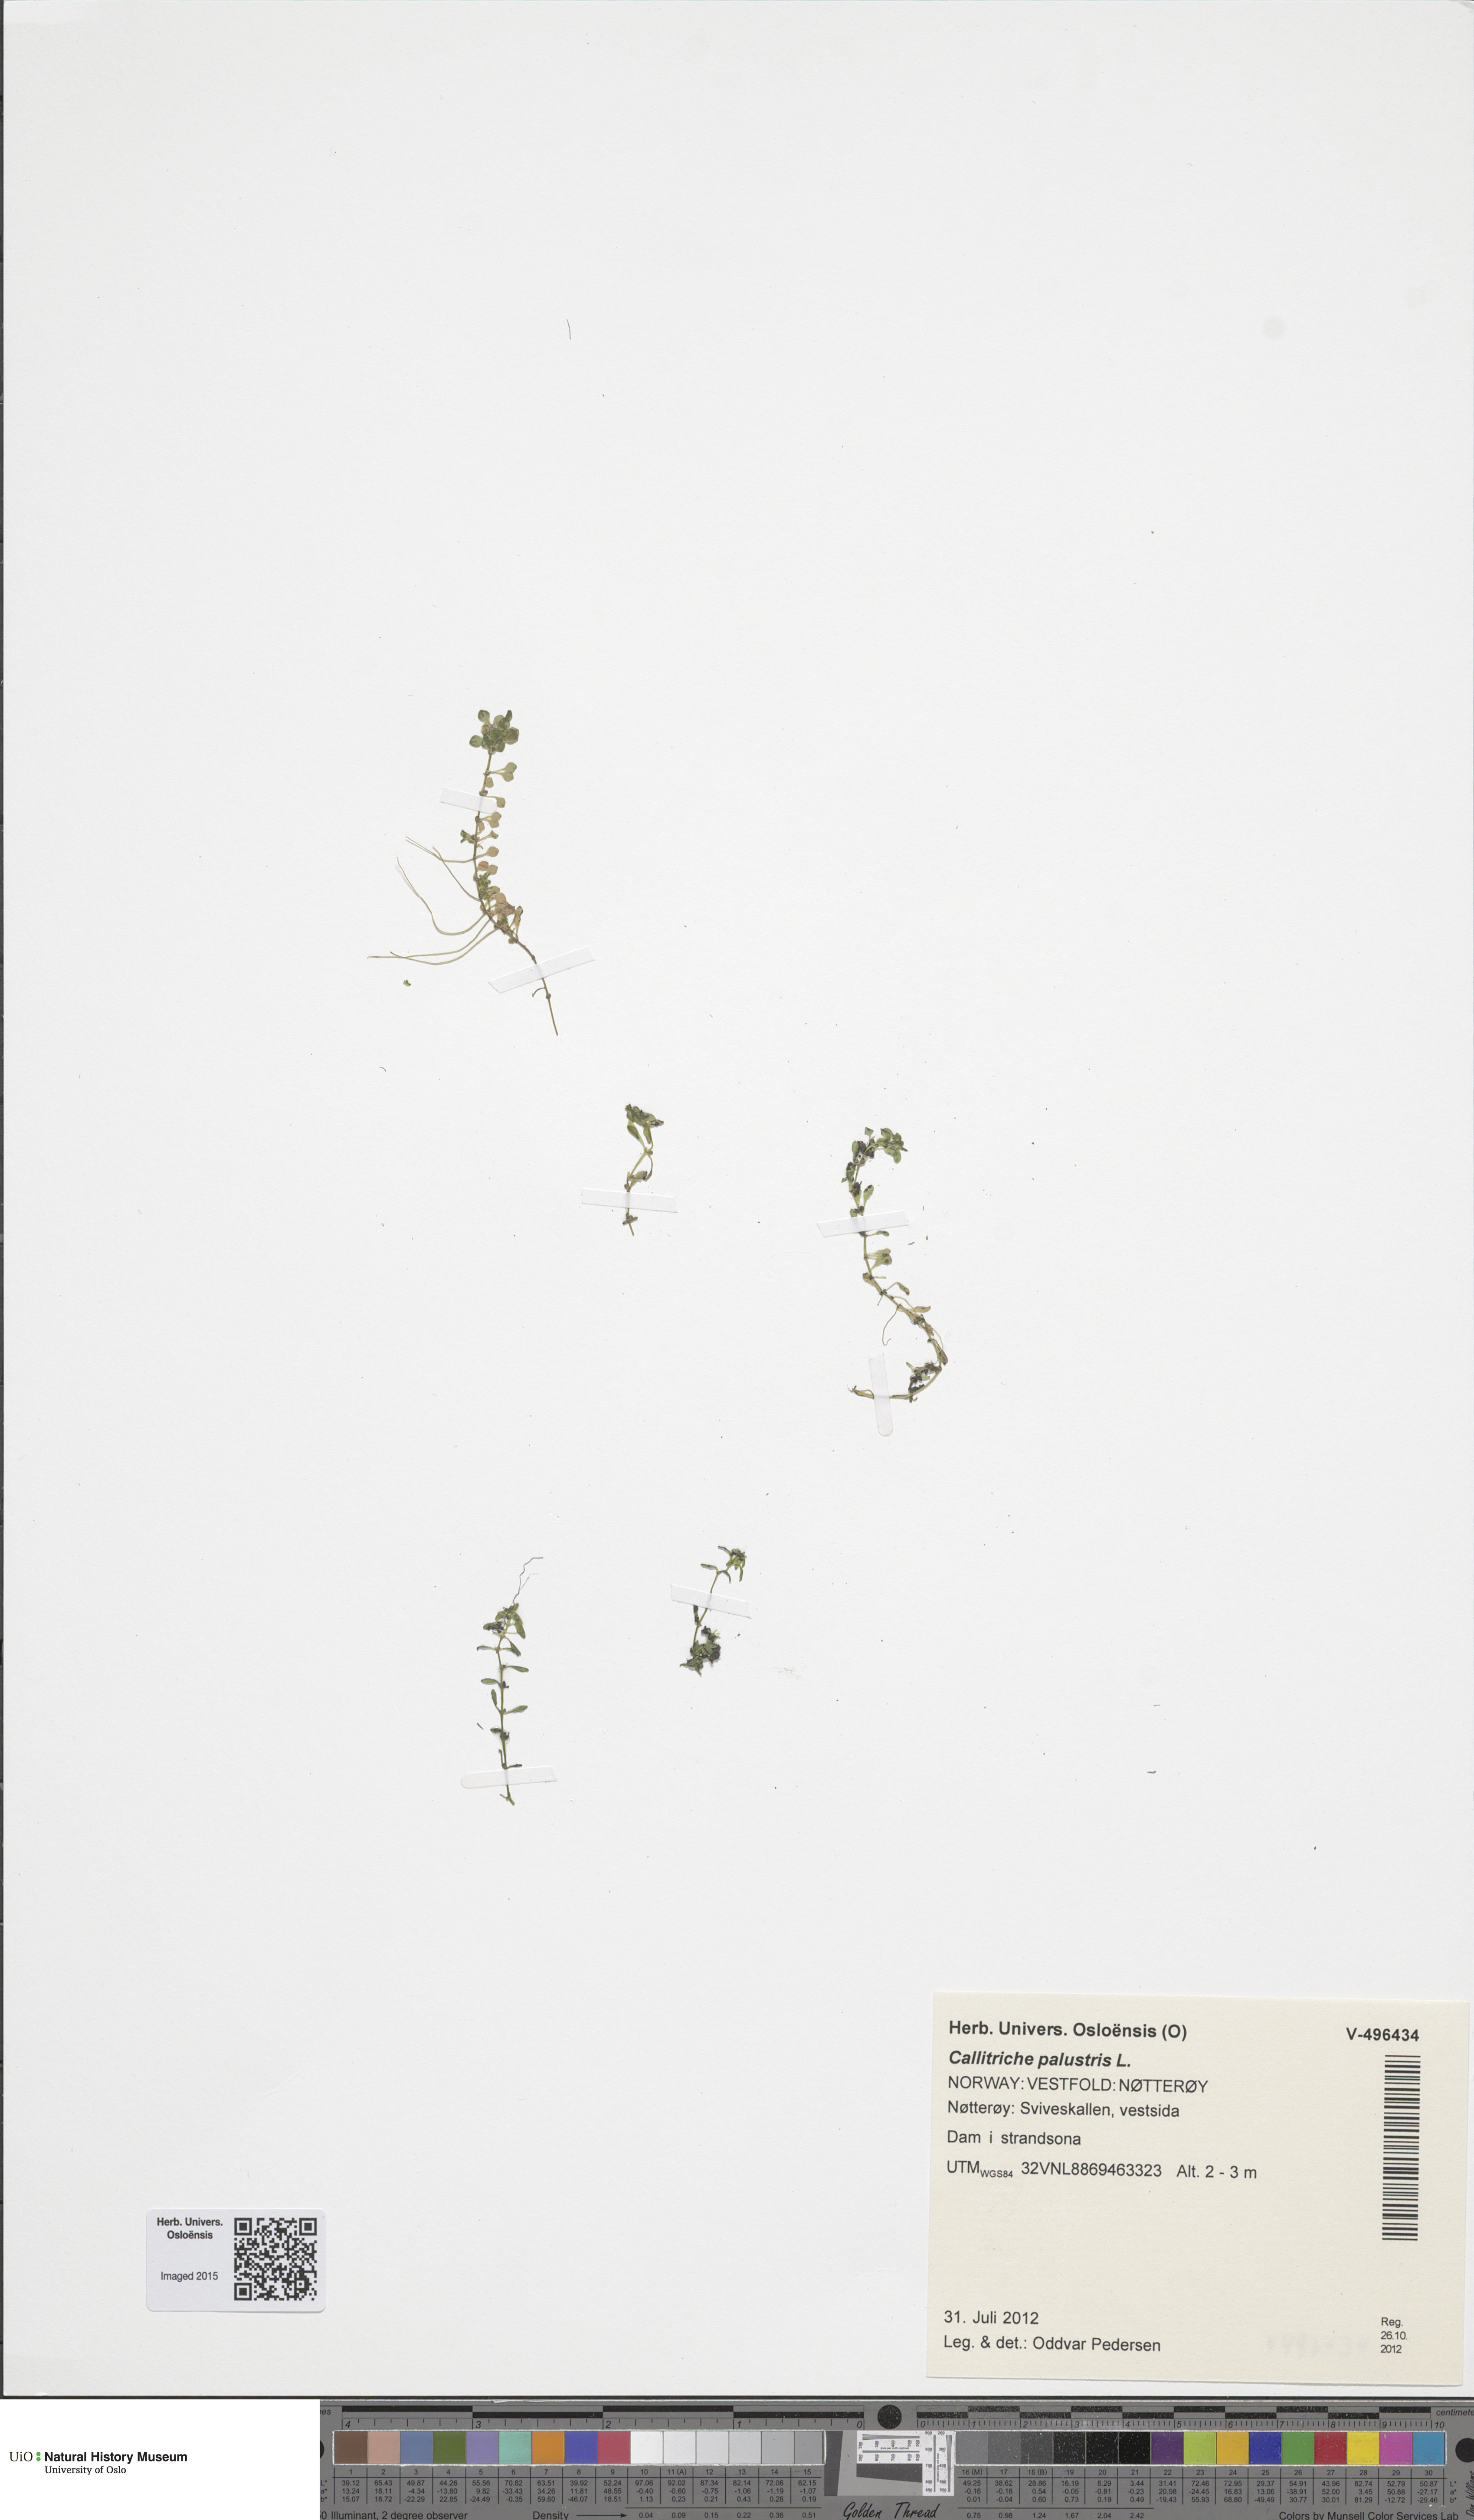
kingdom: Plantae
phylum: Tracheophyta
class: Magnoliopsida
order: Lamiales
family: Plantaginaceae
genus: Callitriche
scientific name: Callitriche palustris
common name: Spring water-starwort
